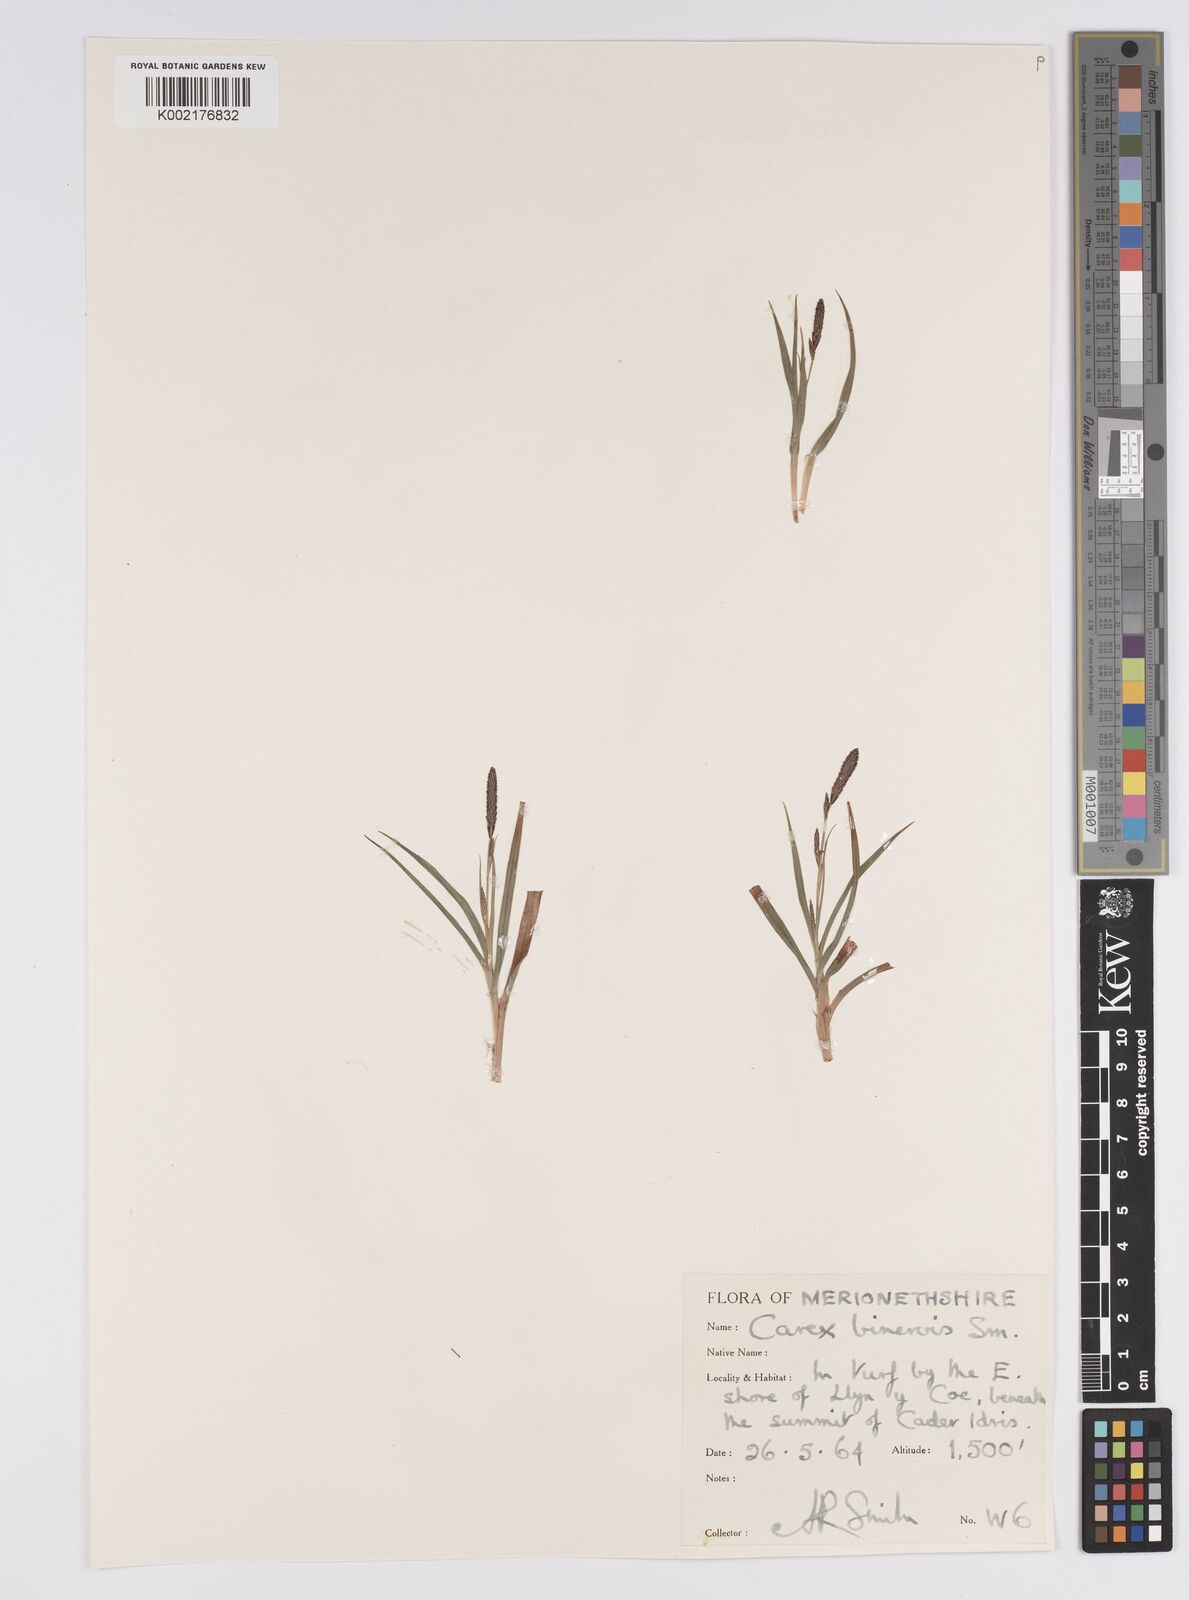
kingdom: Plantae
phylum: Tracheophyta
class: Liliopsida
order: Poales
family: Cyperaceae
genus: Carex
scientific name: Carex binervis
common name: Green-ribbed sedge
